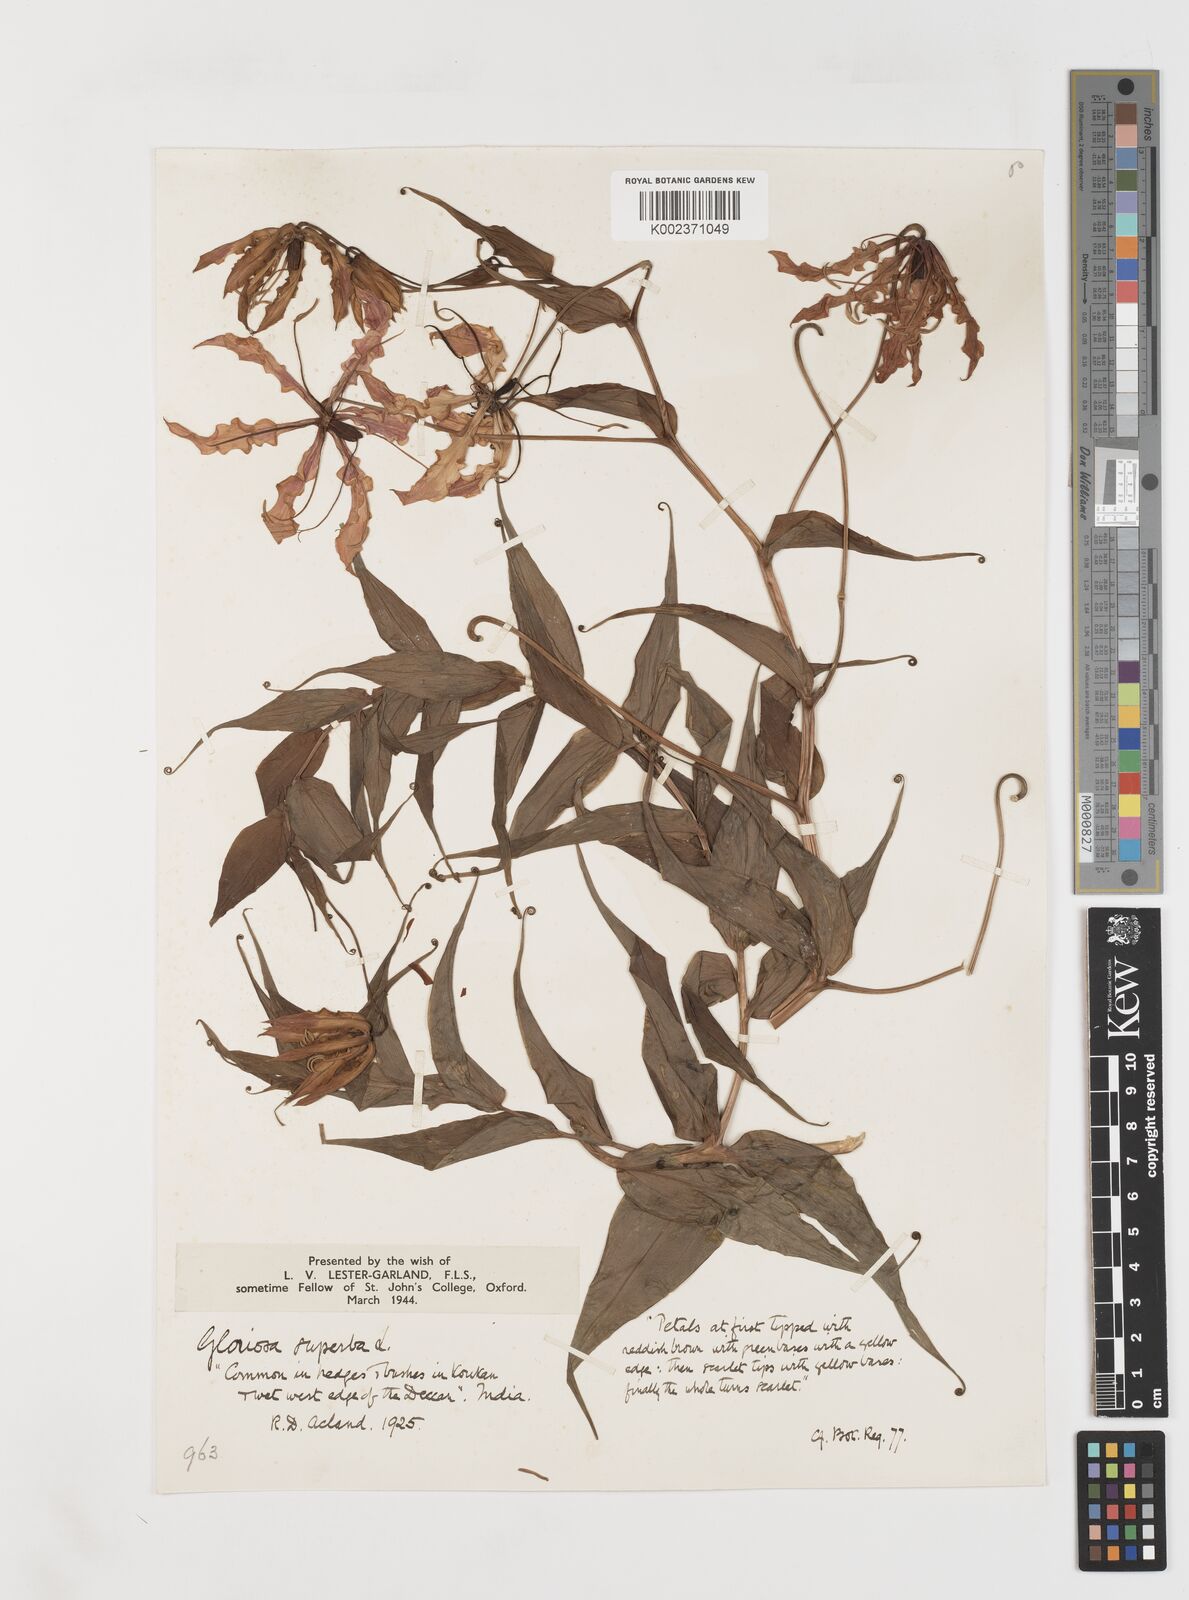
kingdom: Plantae
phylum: Tracheophyta
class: Liliopsida
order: Liliales
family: Colchicaceae
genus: Gloriosa
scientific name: Gloriosa superba
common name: Flame lily
